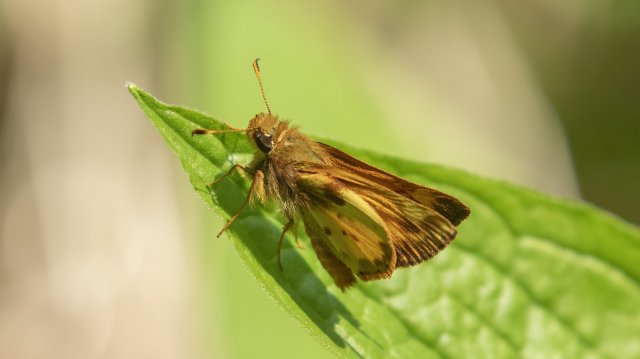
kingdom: Animalia
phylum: Arthropoda
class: Insecta
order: Lepidoptera
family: Hesperiidae
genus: Lon
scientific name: Lon zabulon
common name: Zabulon Skipper
